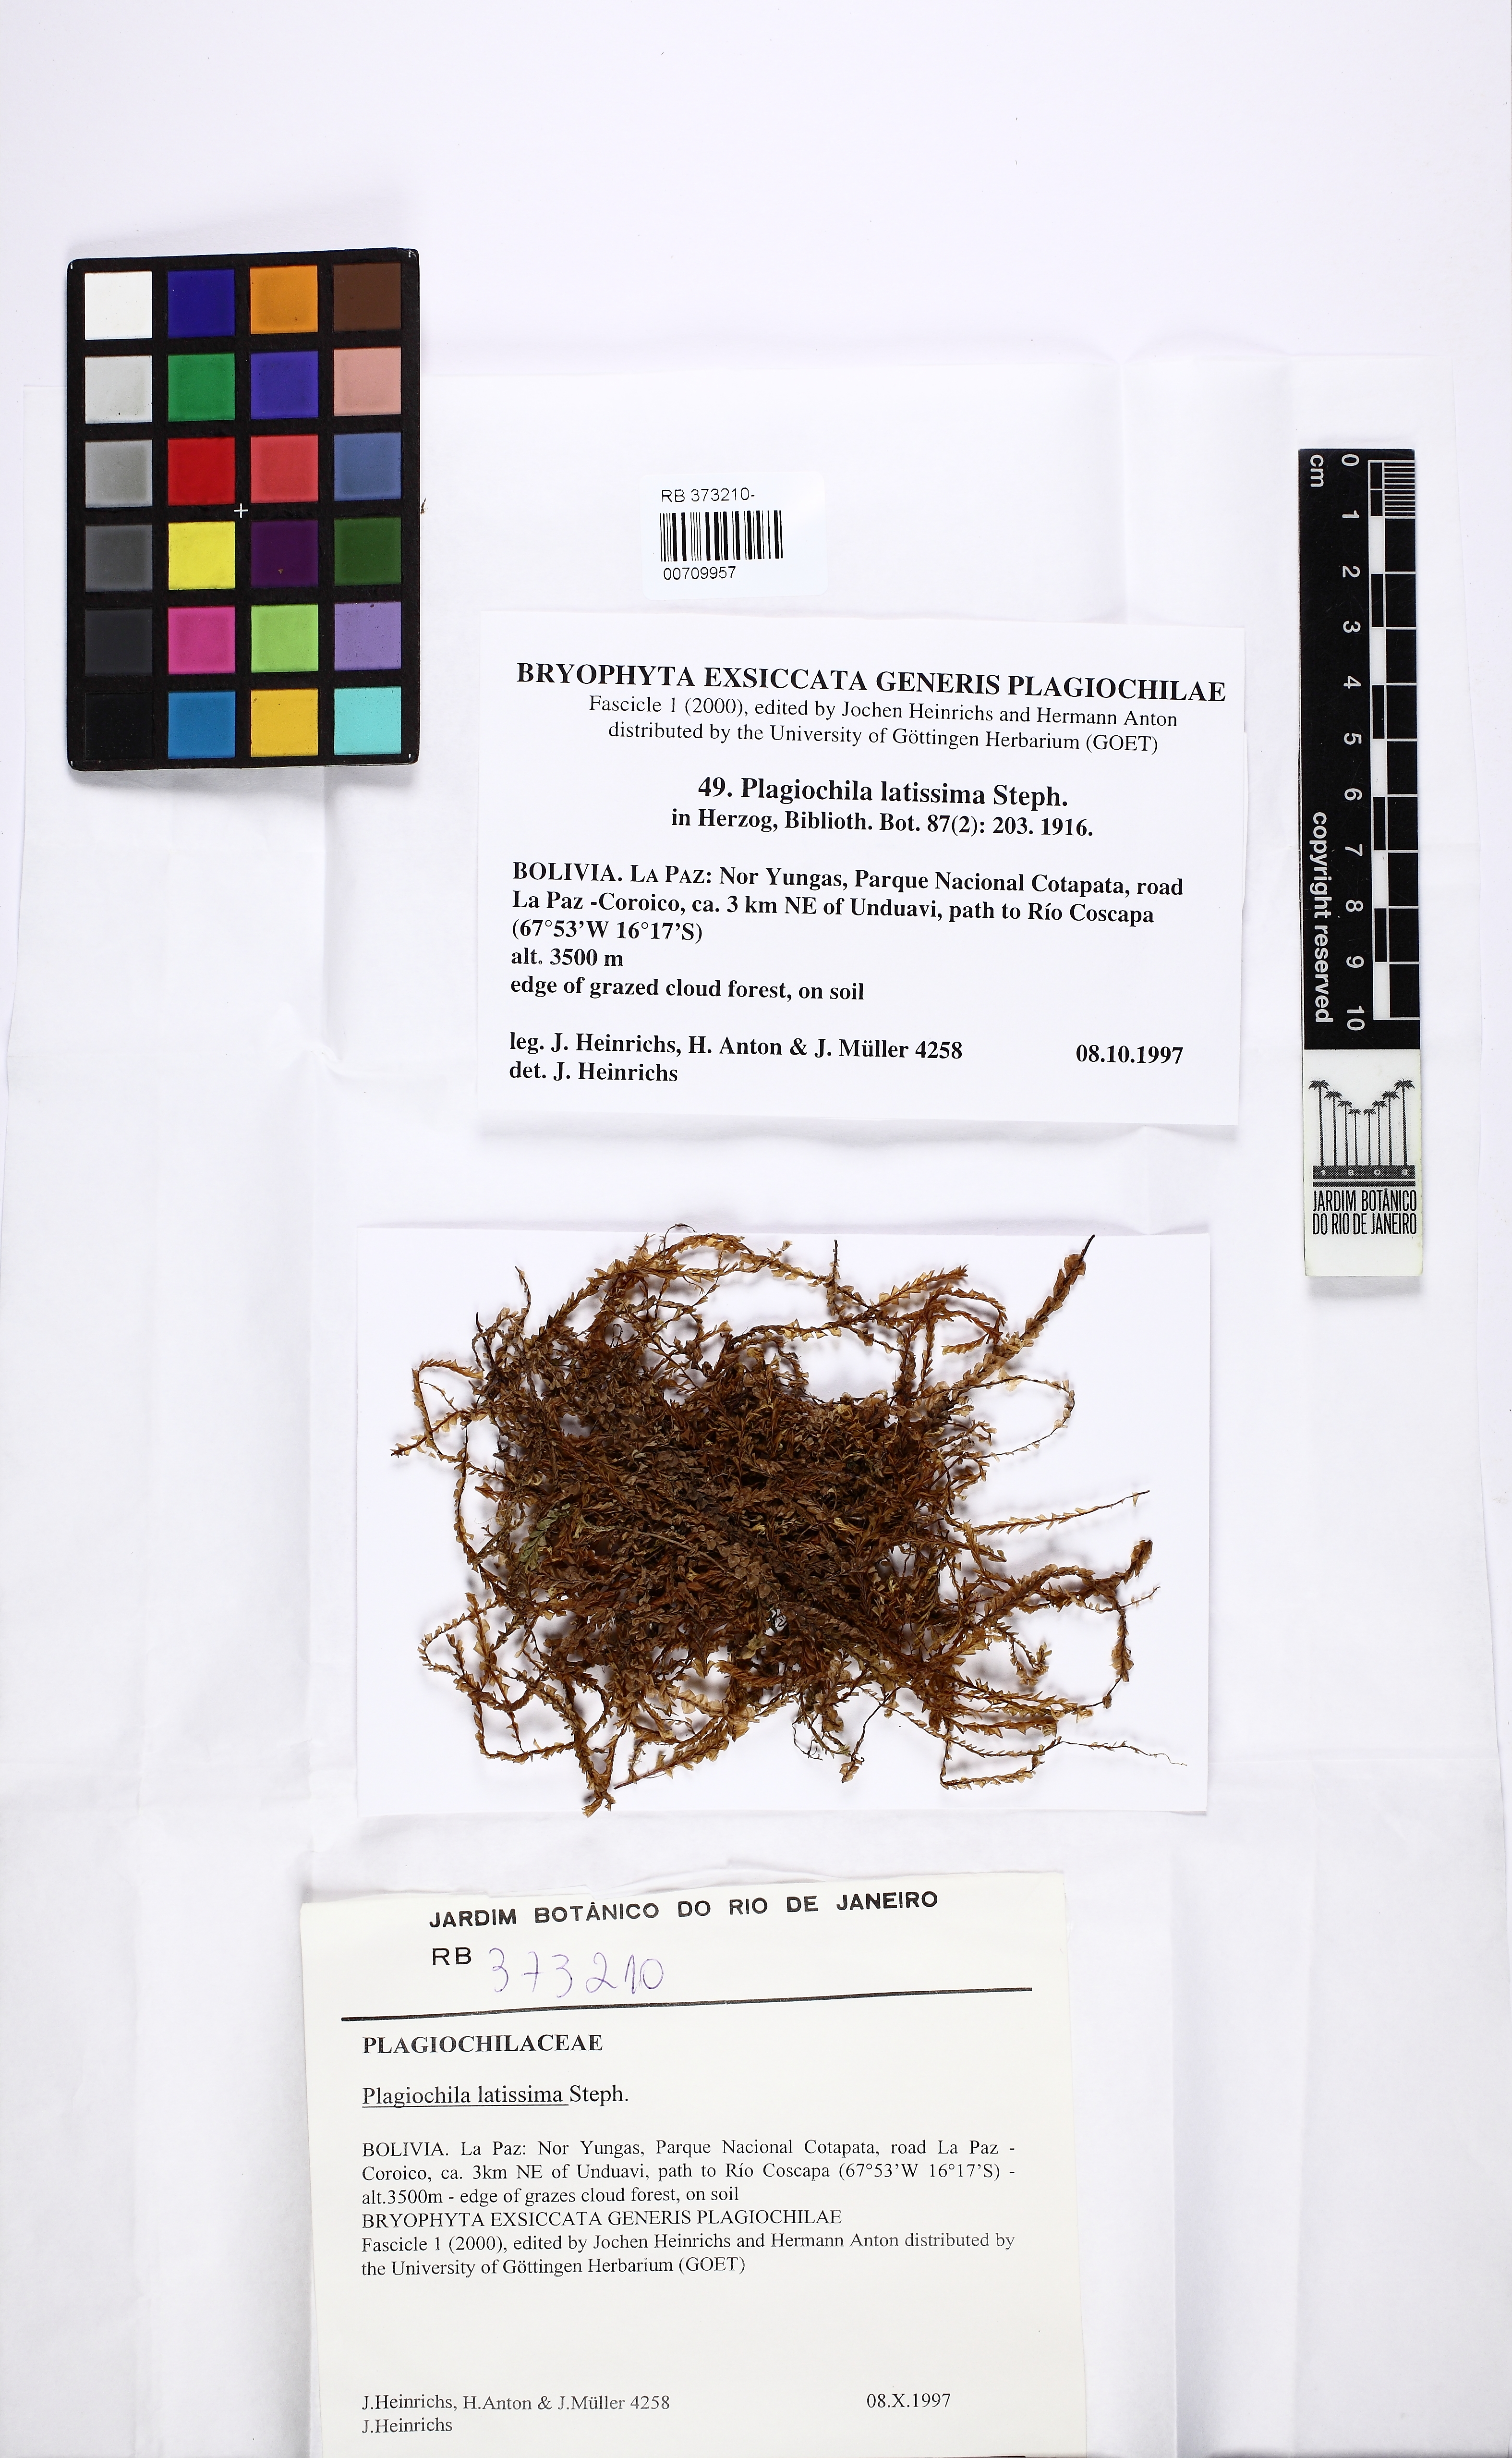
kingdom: Plantae
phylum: Marchantiophyta
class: Jungermanniopsida
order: Jungermanniales
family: Plagiochilaceae
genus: Plagiochila
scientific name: Plagiochila fuscolutea
